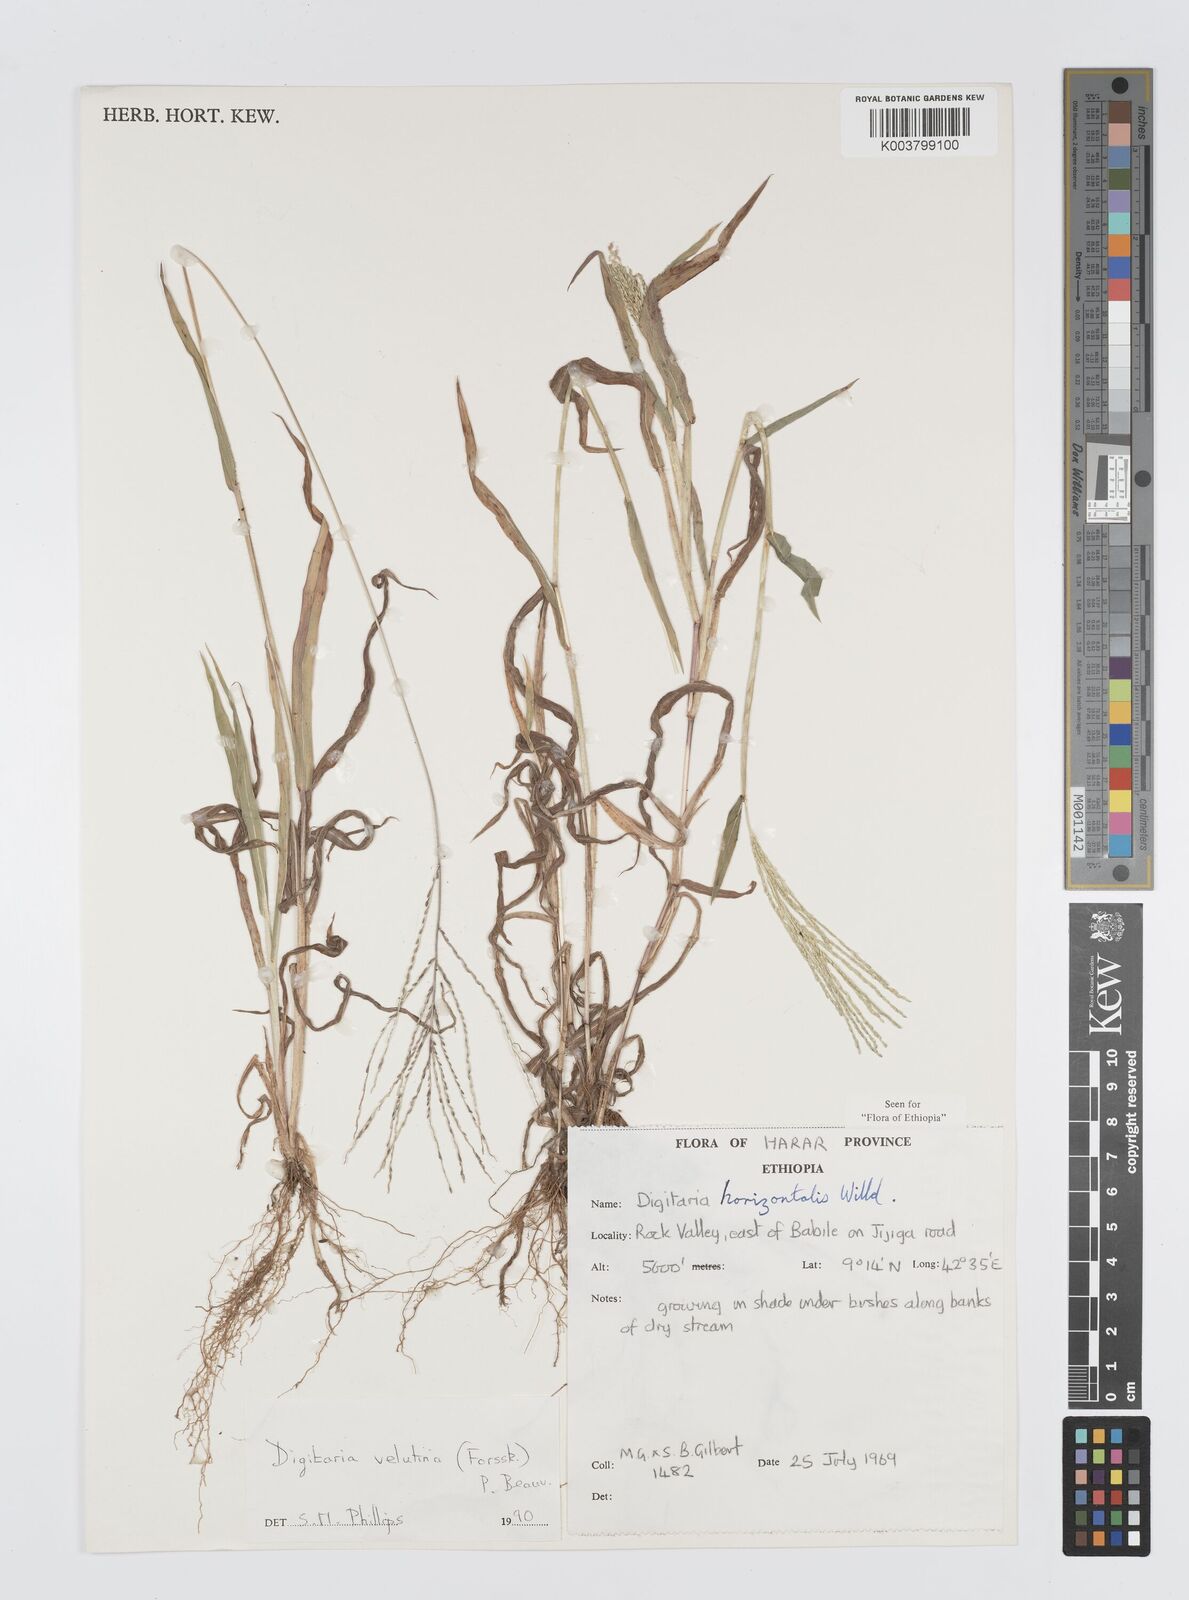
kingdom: Plantae
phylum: Tracheophyta
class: Liliopsida
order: Poales
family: Poaceae
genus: Digitaria
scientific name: Digitaria velutina
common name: Long-plume finger grass
